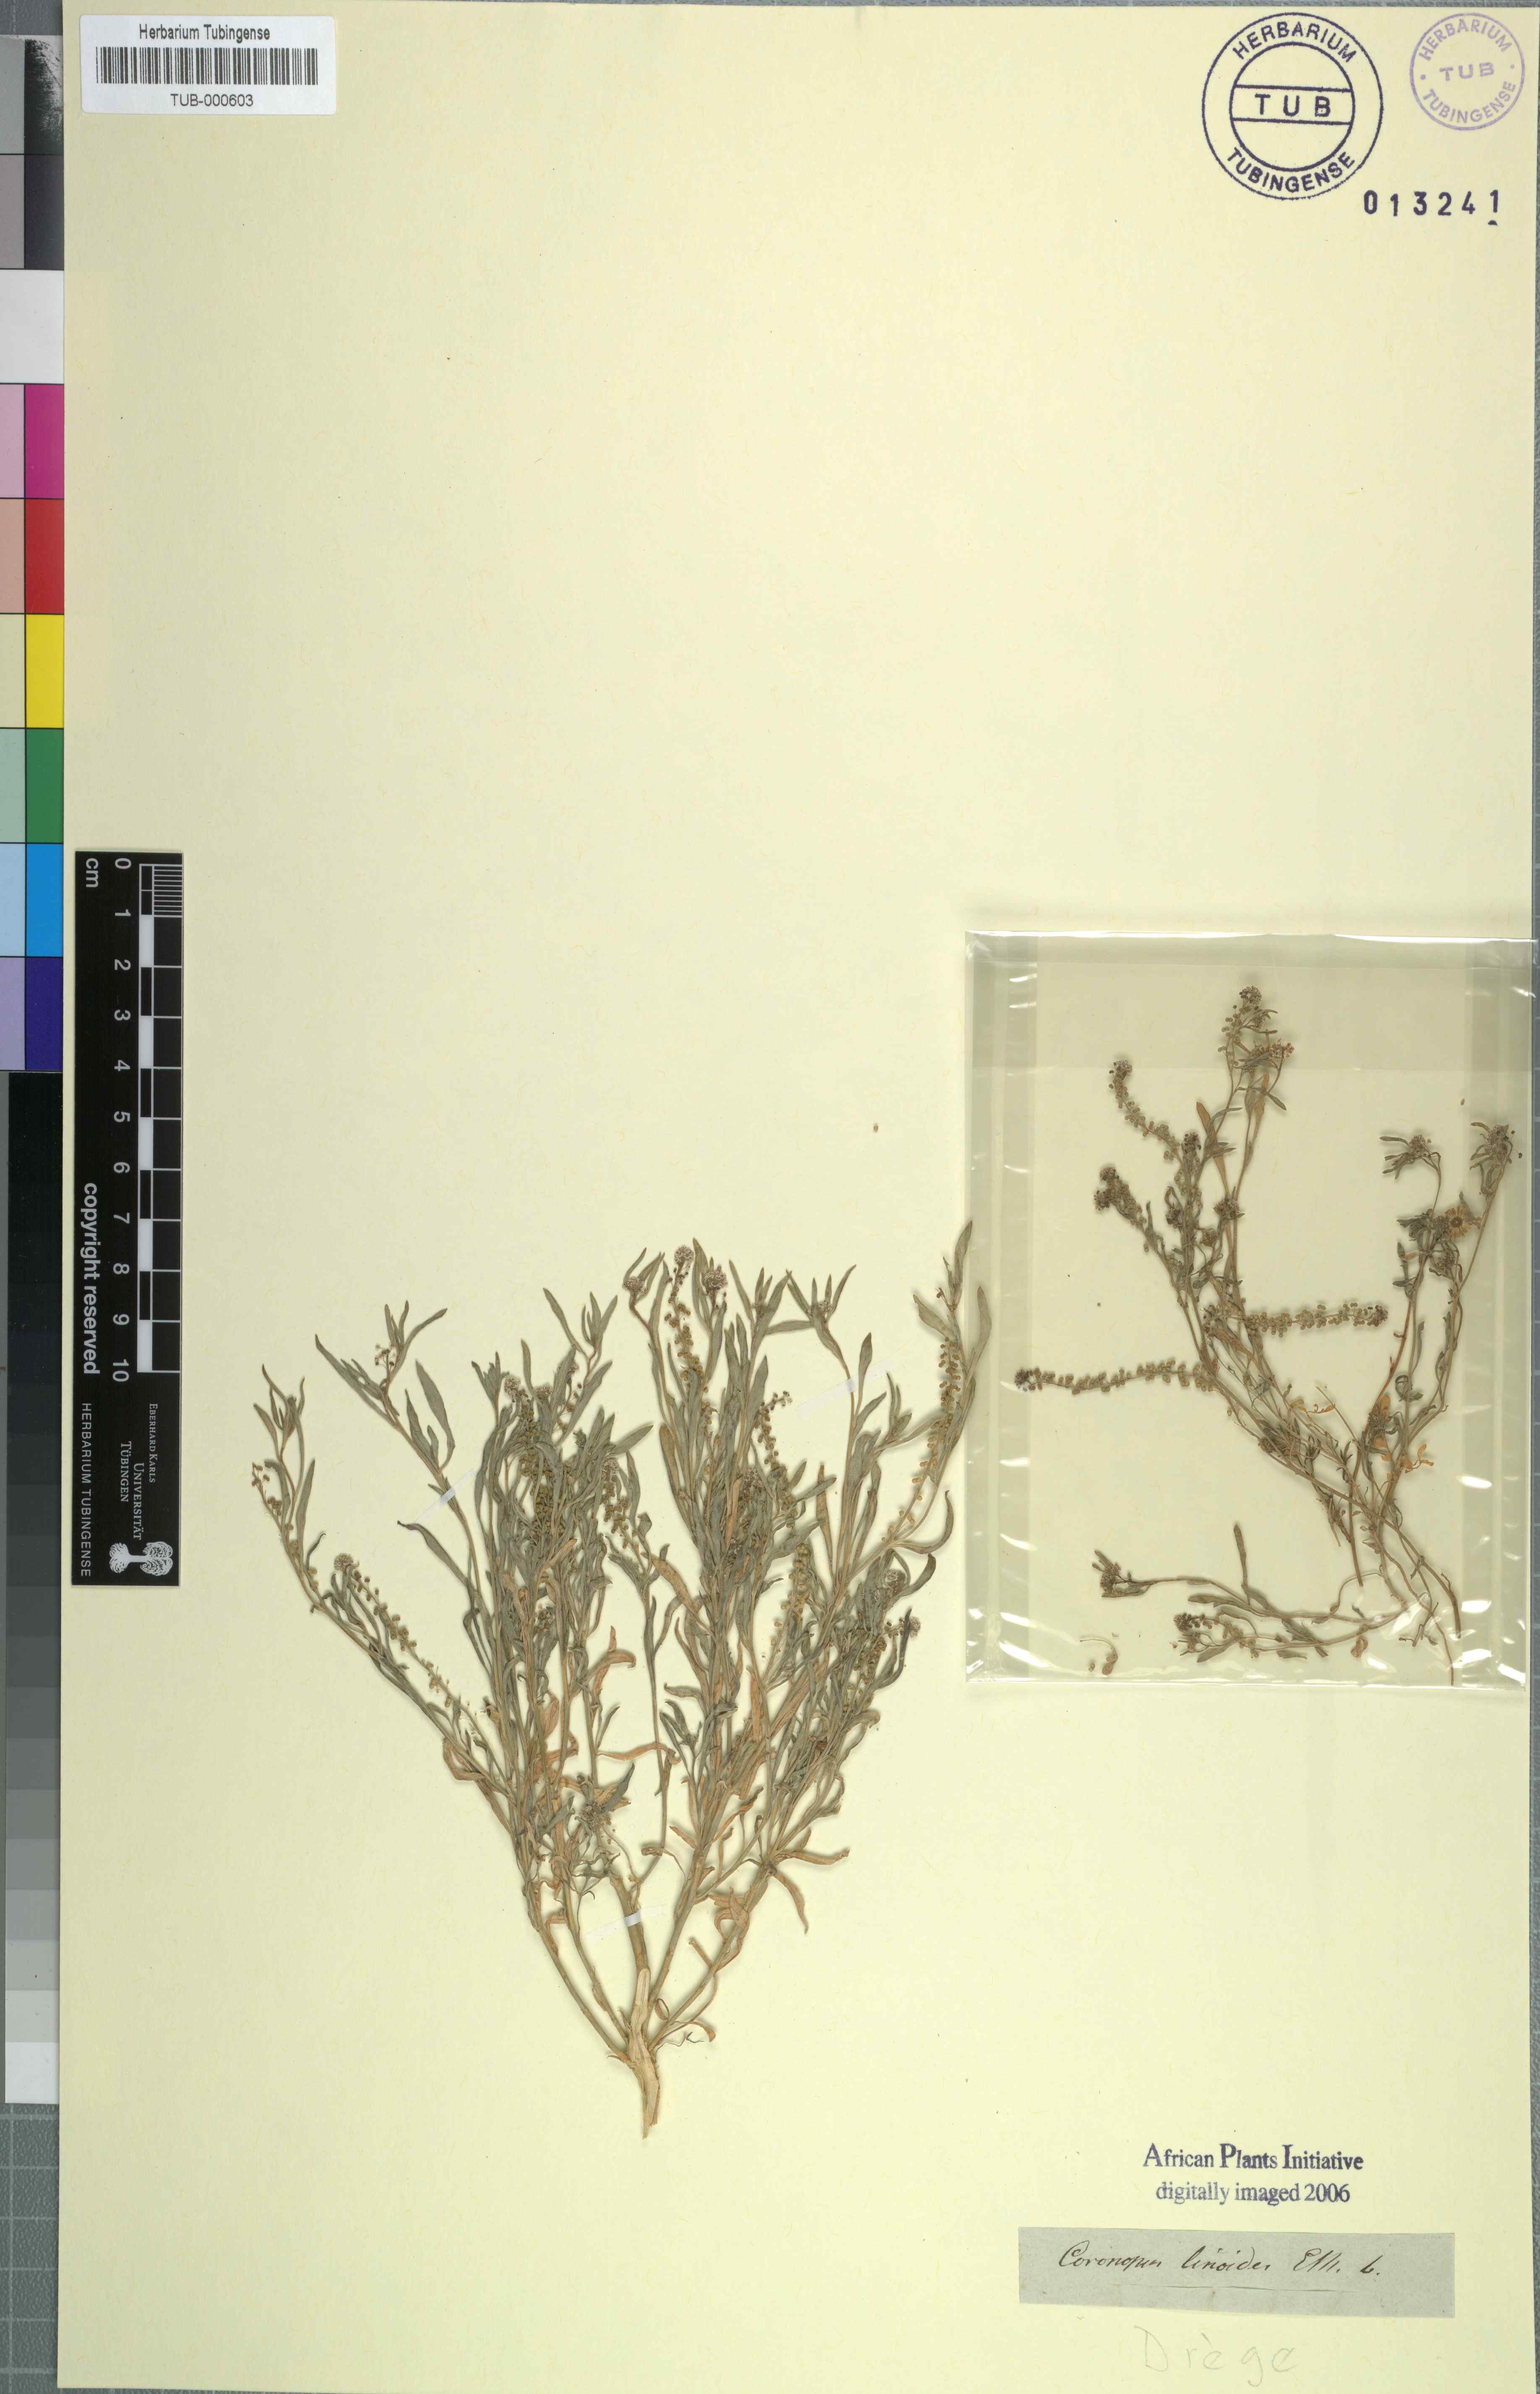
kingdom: Plantae
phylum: Tracheophyta
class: Magnoliopsida
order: Brassicales
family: Brassicaceae
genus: Lepidium
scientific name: Lepidium englerianum
